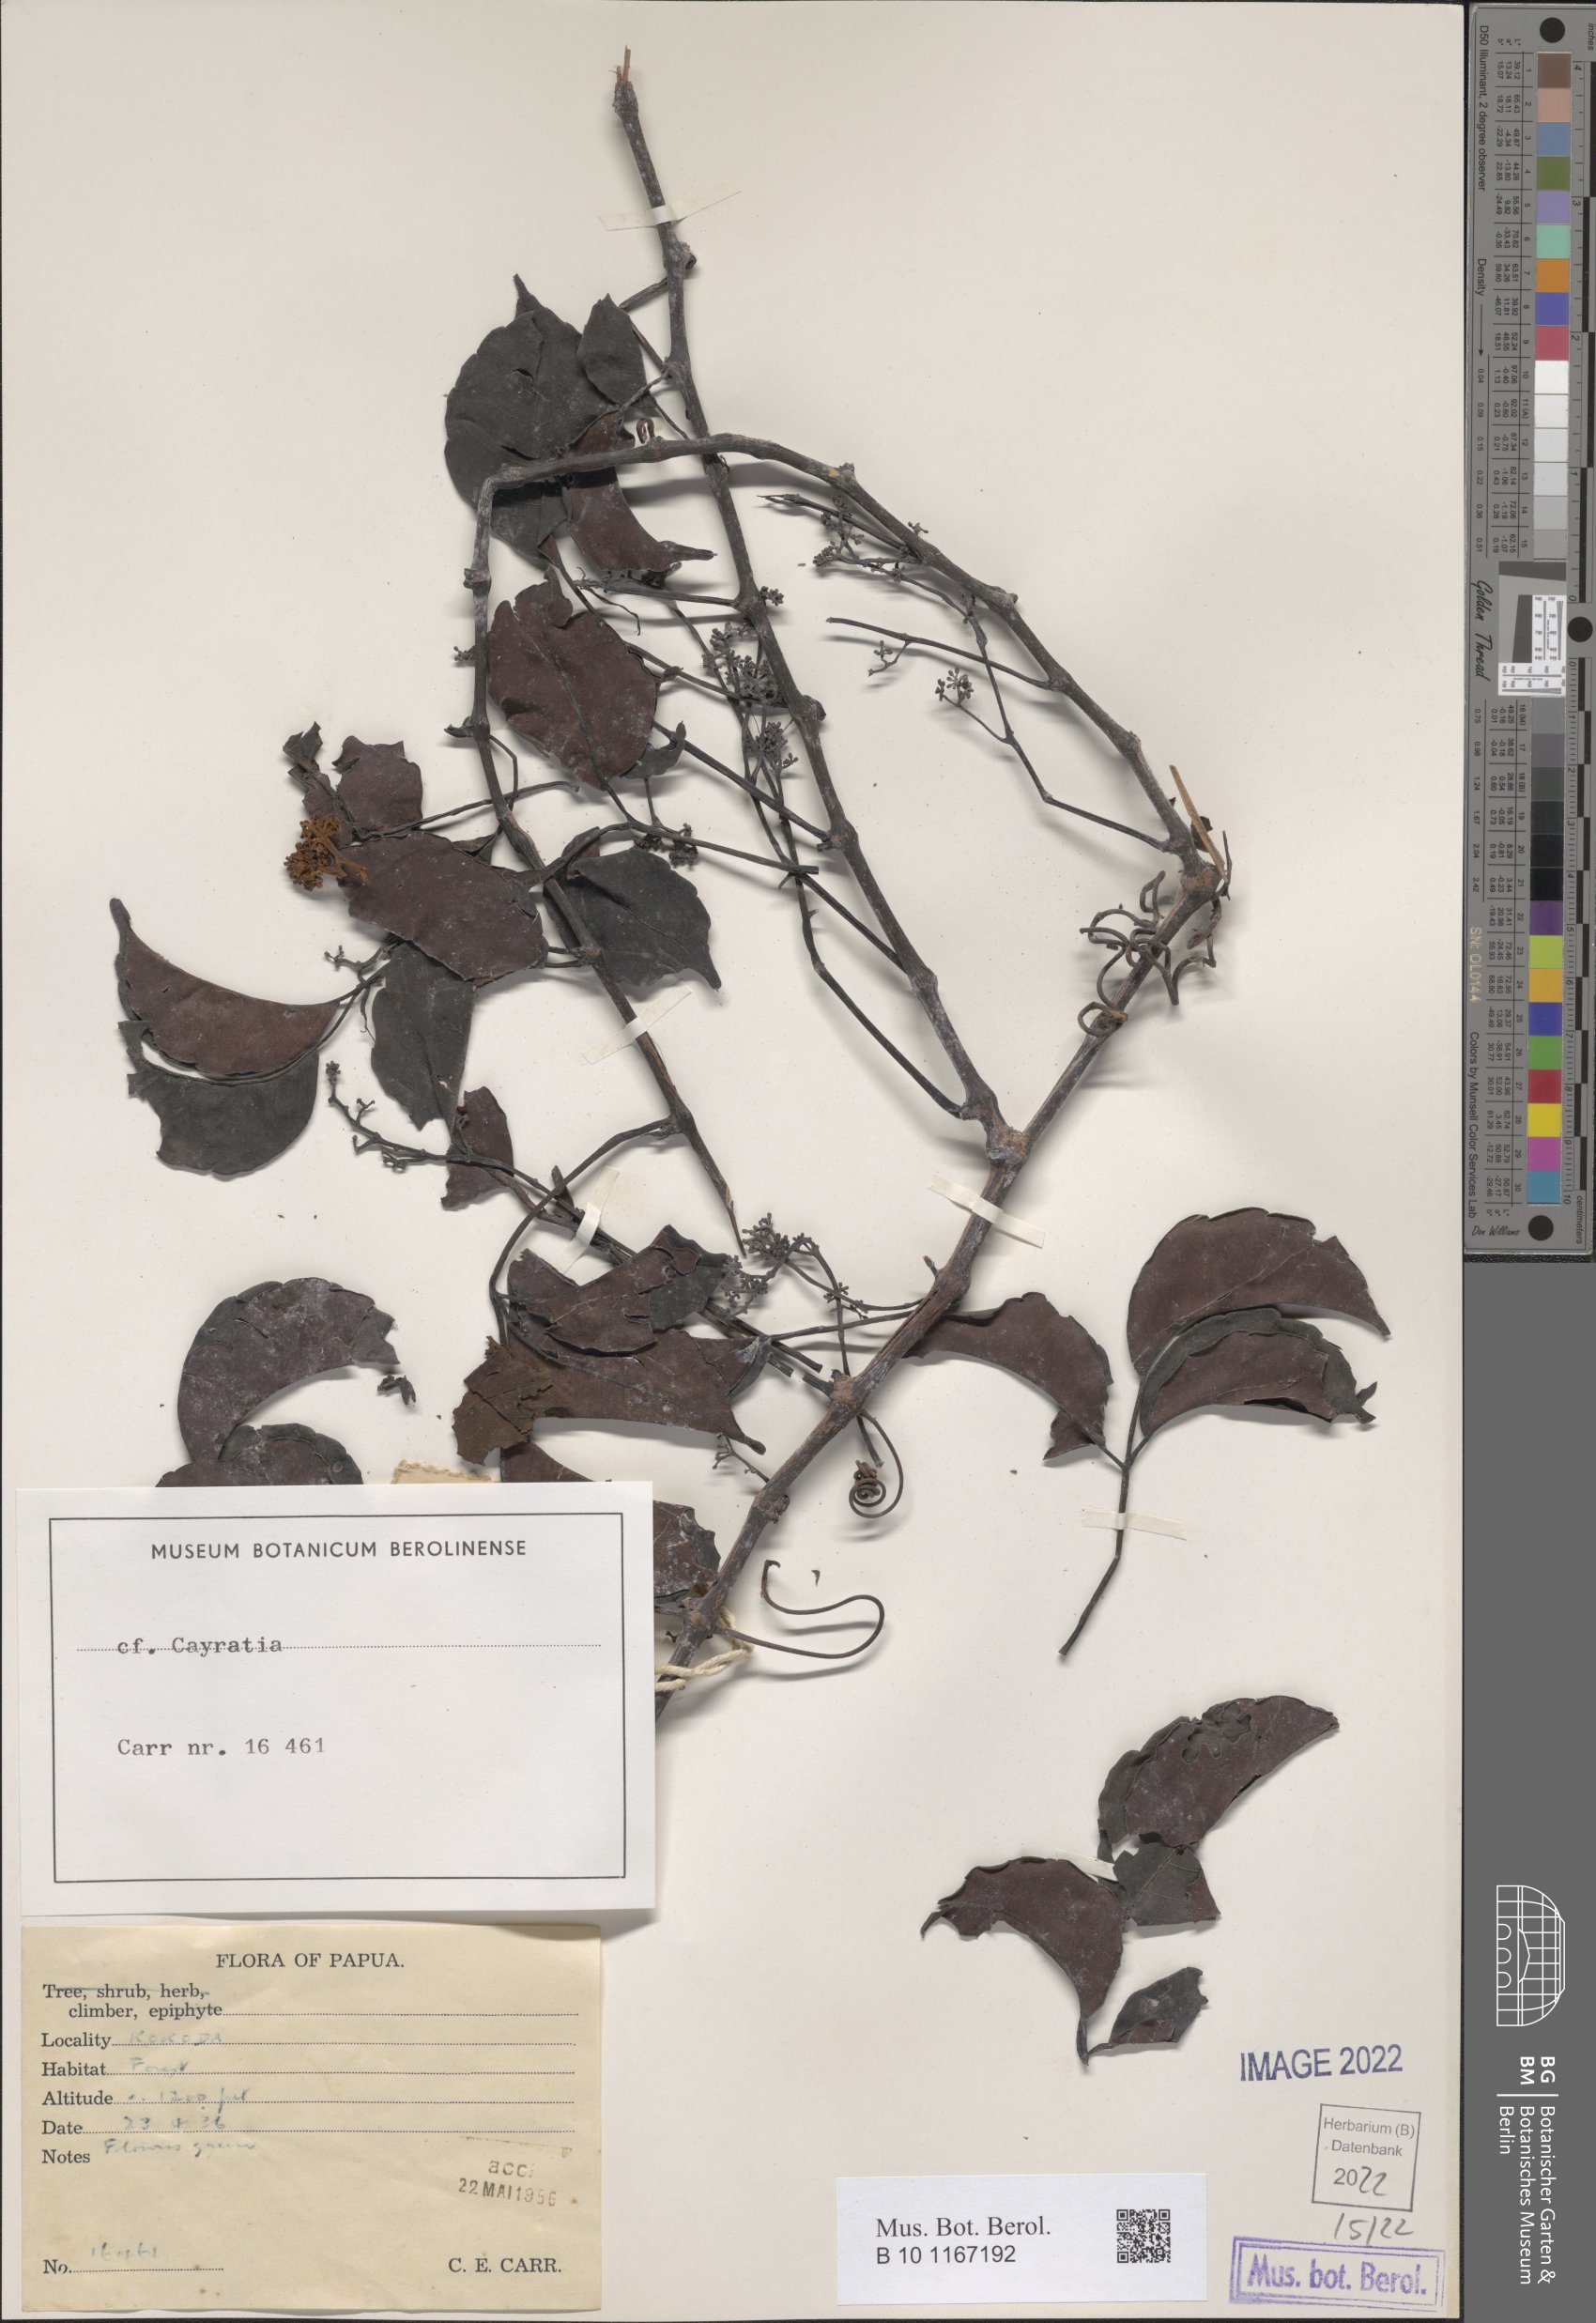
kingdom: Plantae
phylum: Tracheophyta
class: Magnoliopsida
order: Vitales
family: Vitaceae
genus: Cayratia
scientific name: Cayratia
